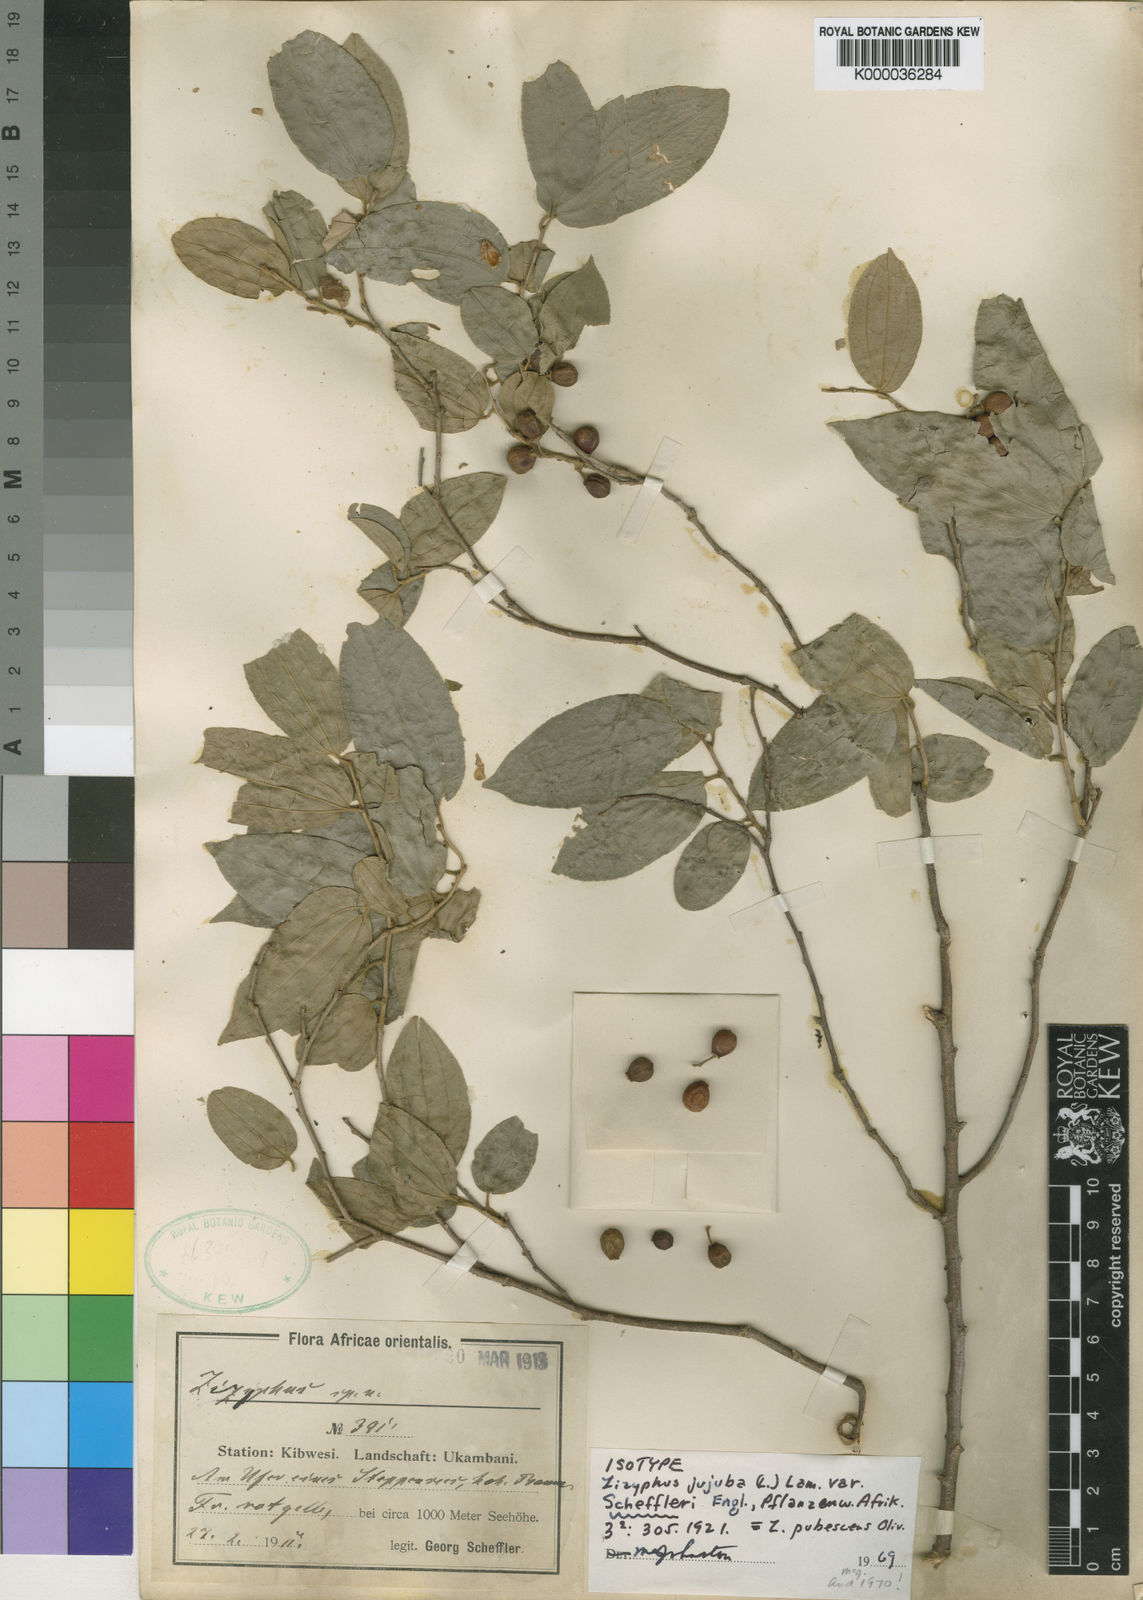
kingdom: Plantae
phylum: Tracheophyta
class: Magnoliopsida
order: Rosales
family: Rhamnaceae
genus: Ziziphus
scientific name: Ziziphus pubescens
